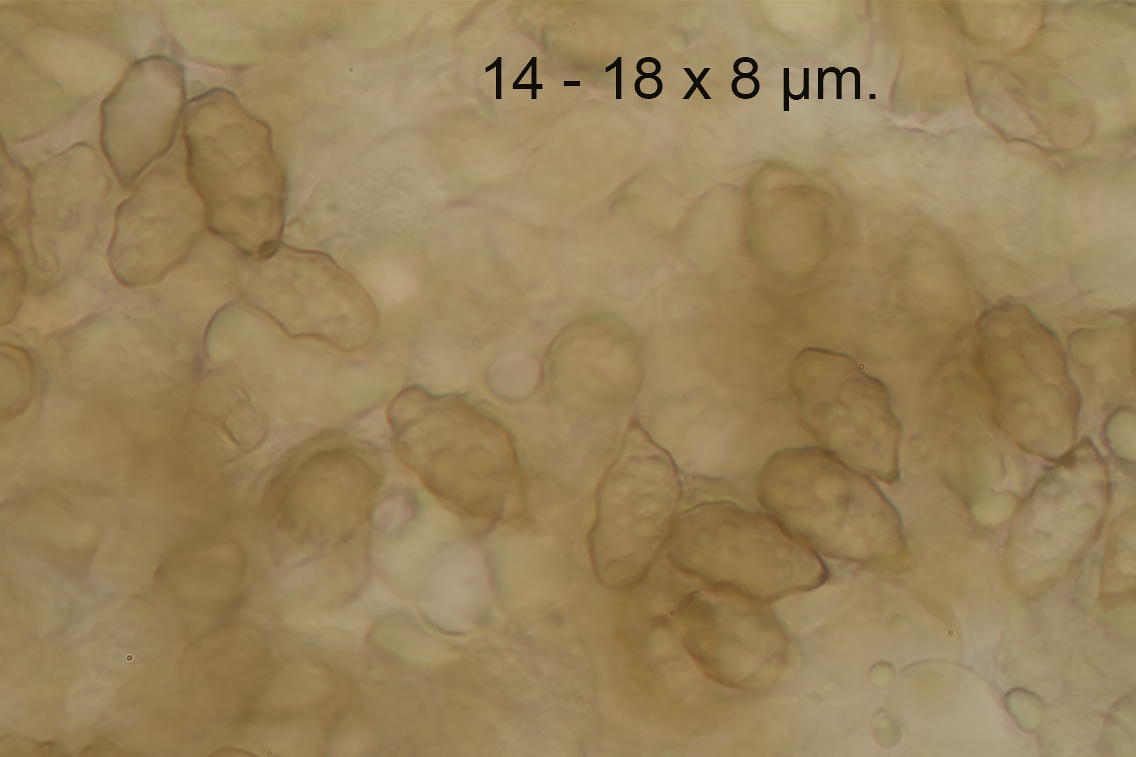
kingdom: Fungi
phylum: Basidiomycota
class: Agaricomycetes
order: Agaricales
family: Entolomataceae
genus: Entoloma
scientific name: Entoloma dysthales
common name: gråhåret rødblad
